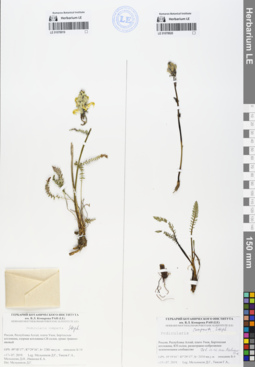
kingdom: Plantae
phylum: Tracheophyta
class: Magnoliopsida
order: Lamiales
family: Orobanchaceae
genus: Pedicularis
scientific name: Pedicularis compacta
